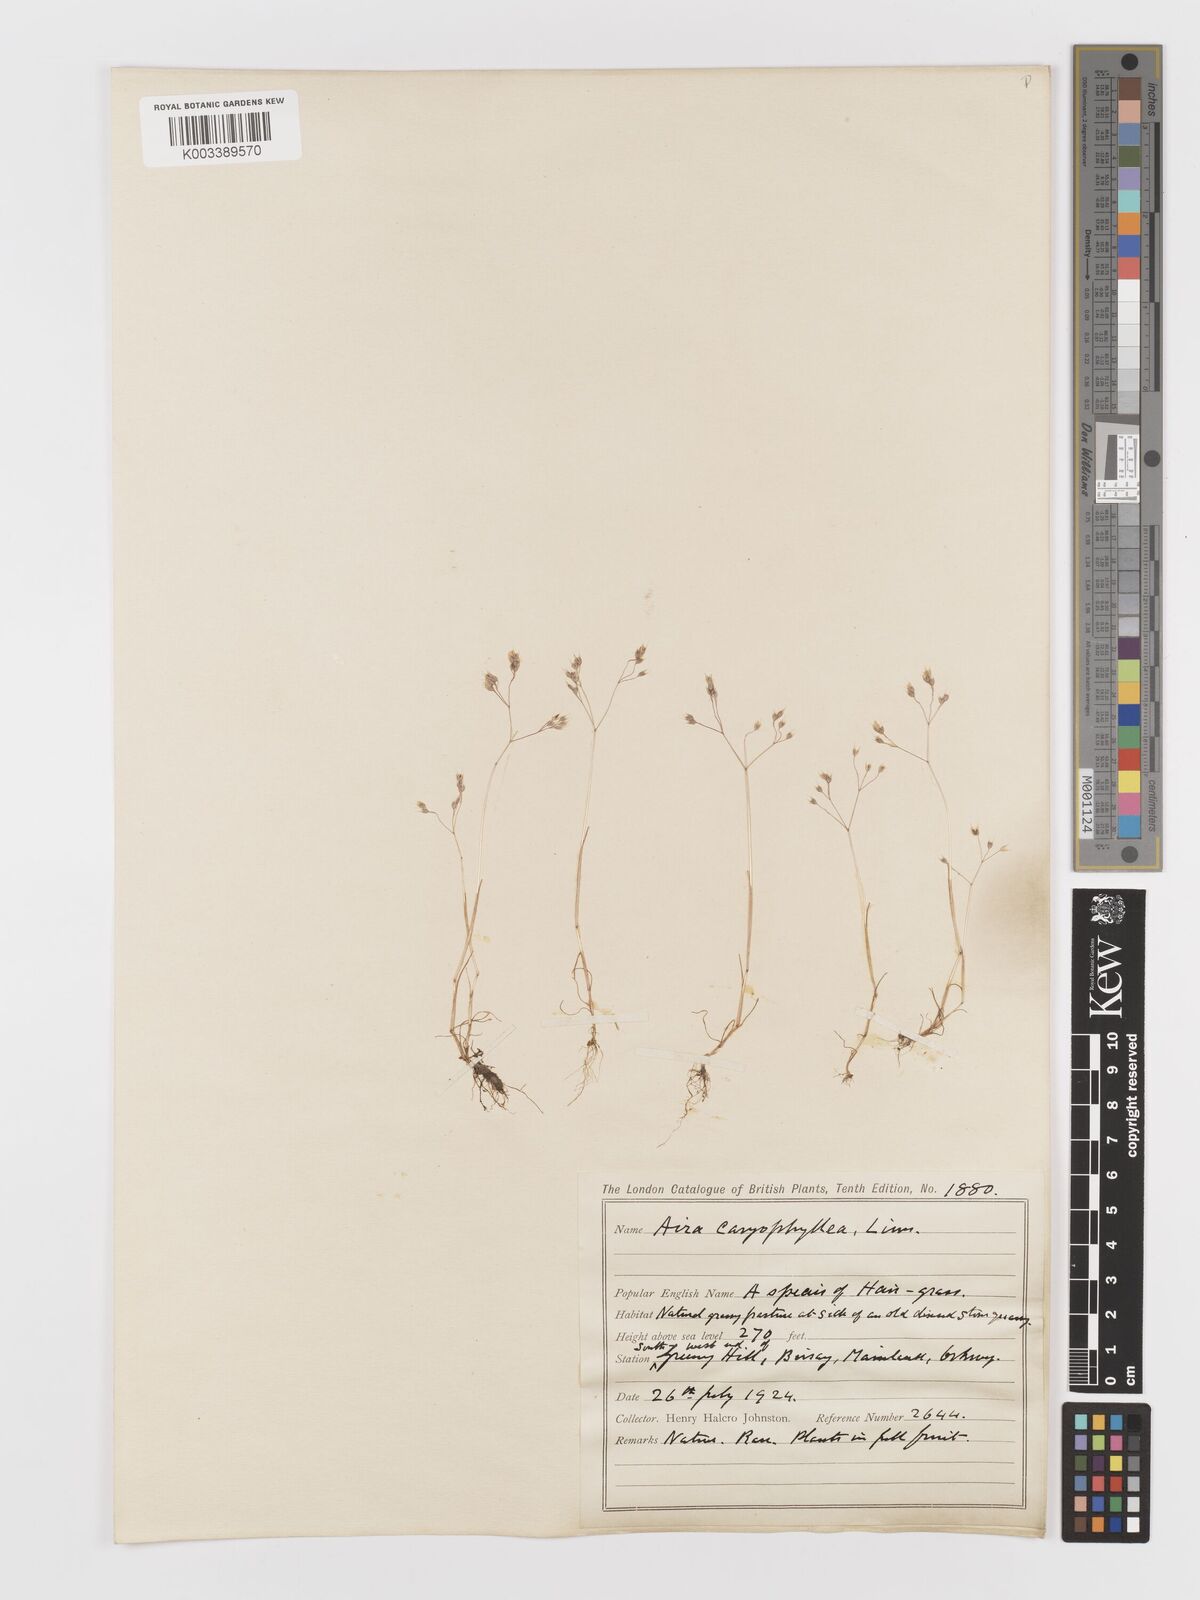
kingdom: Plantae
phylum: Tracheophyta
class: Liliopsida
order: Poales
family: Poaceae
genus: Aira
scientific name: Aira caryophyllea
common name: Silver hairgrass
